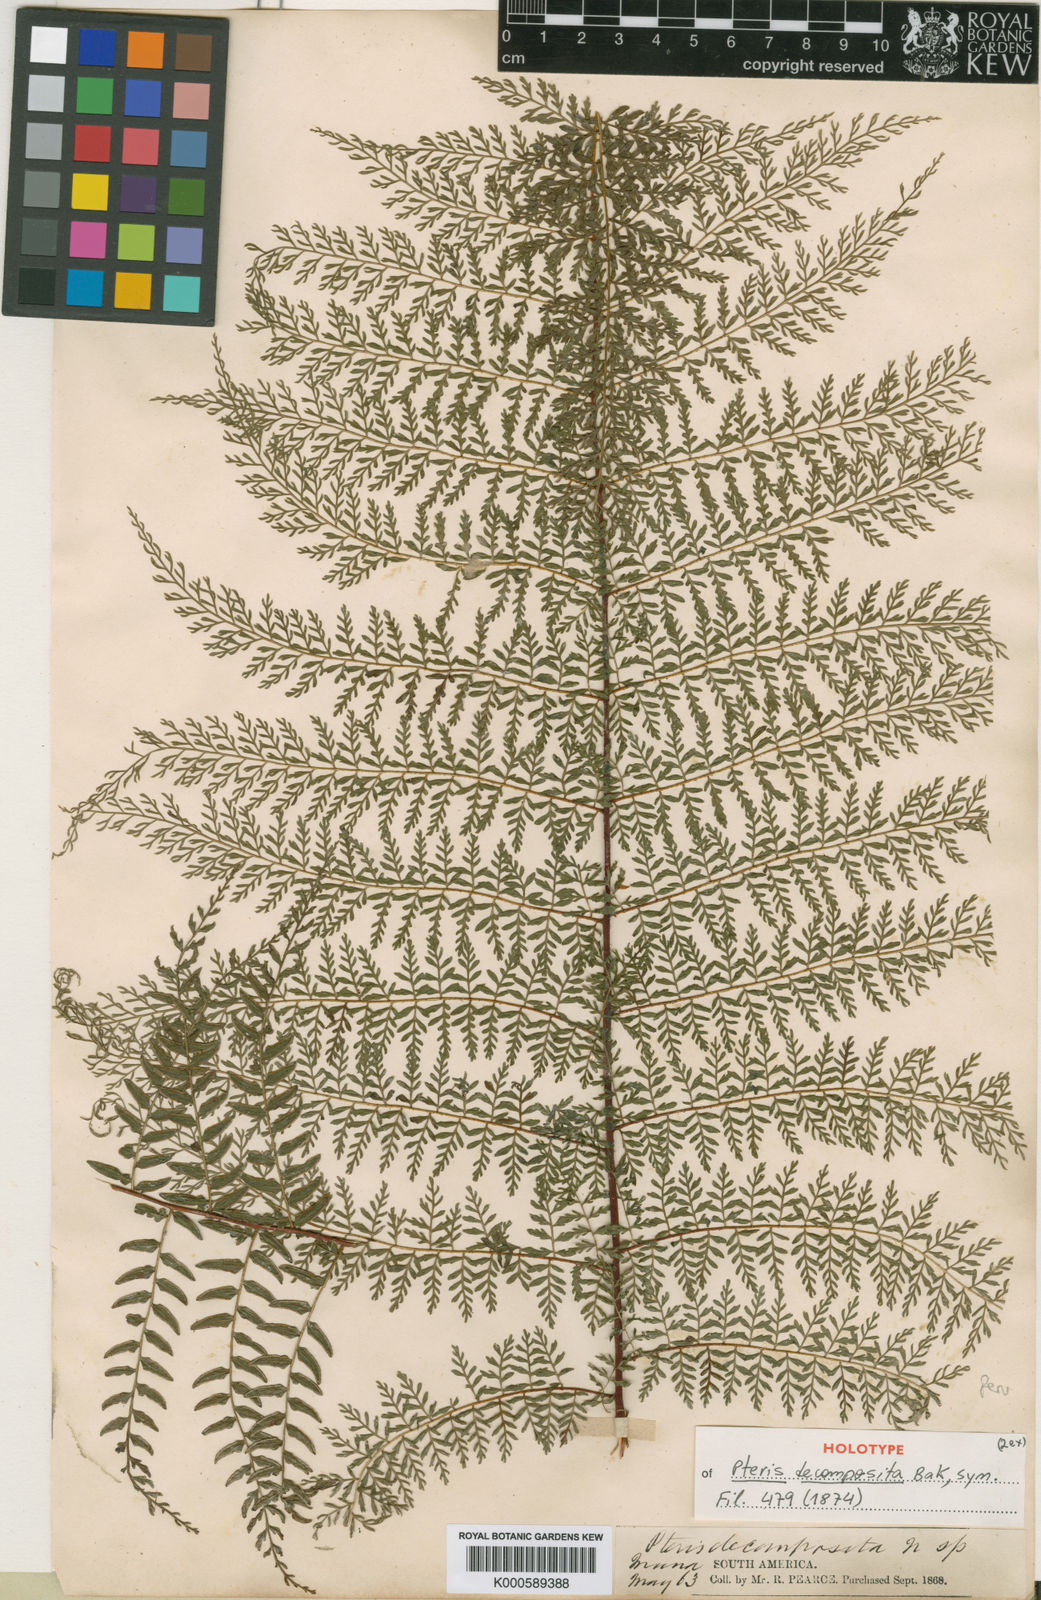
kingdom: Plantae
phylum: Tracheophyta
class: Polypodiopsida
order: Polypodiales
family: Pteridaceae
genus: Pteris
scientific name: Pteris bakeri
